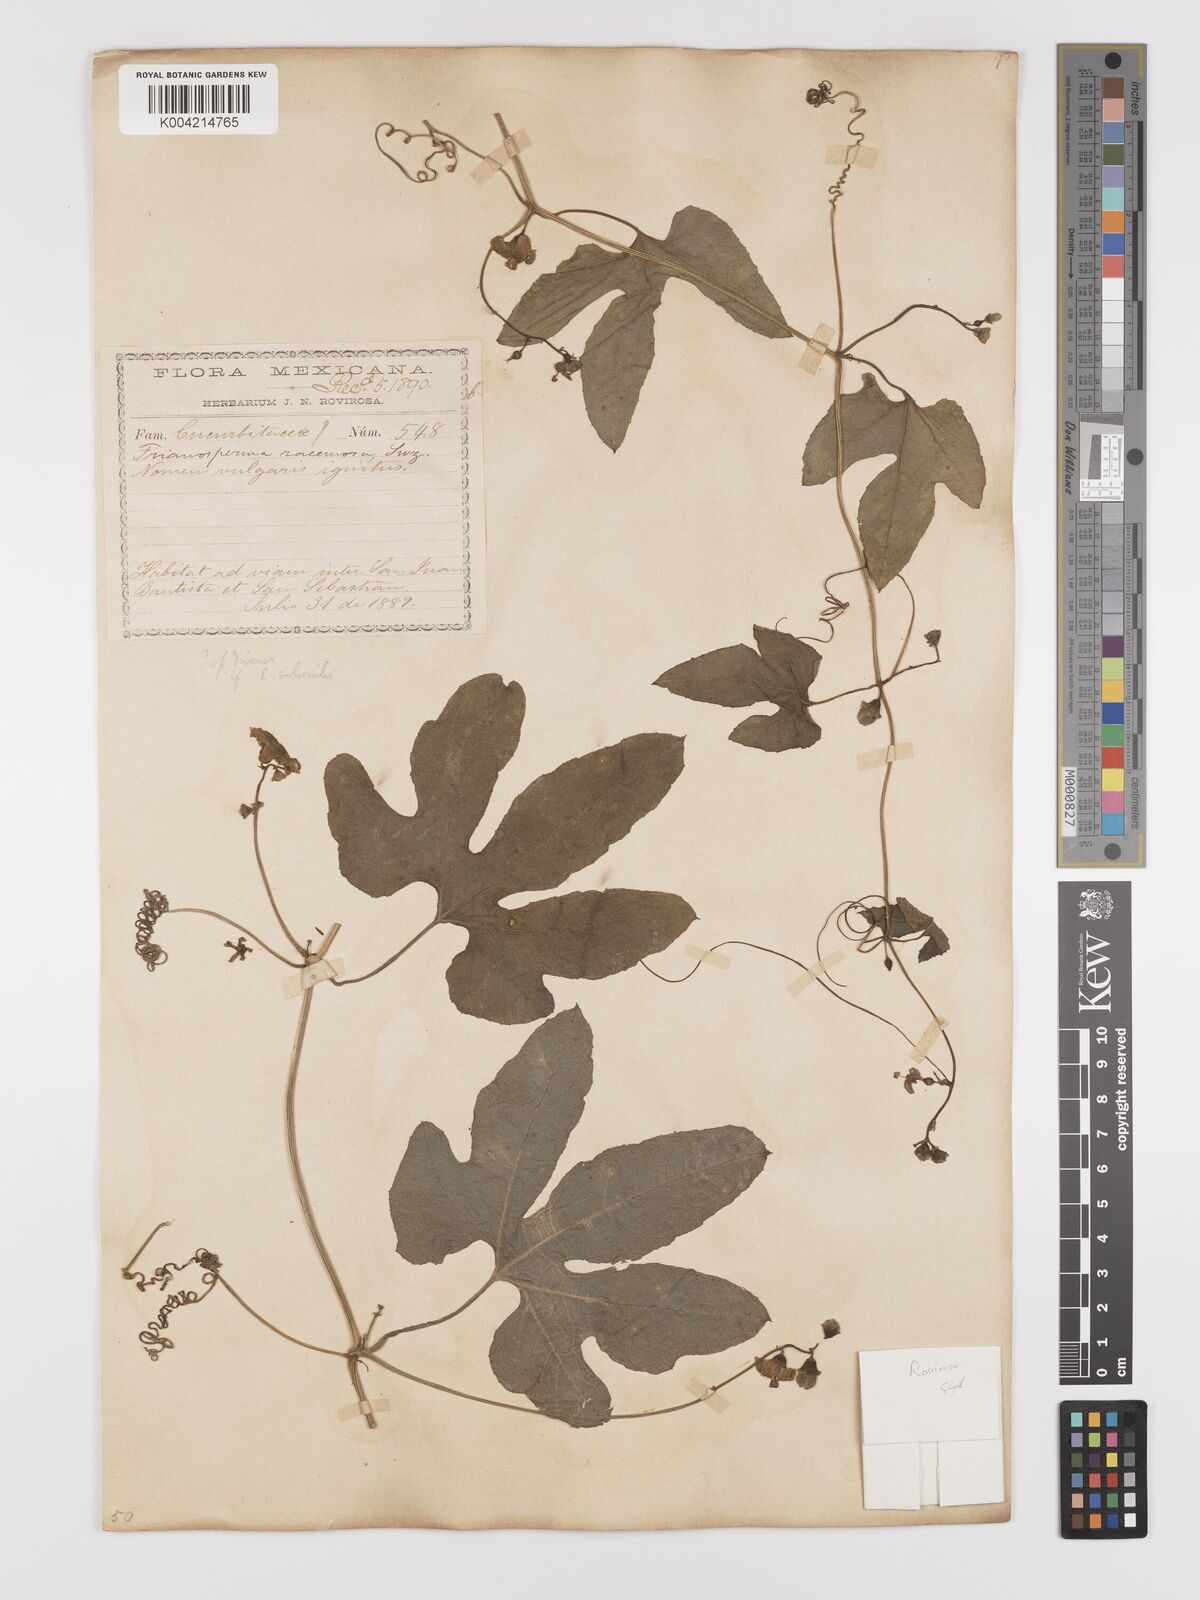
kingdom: Plantae
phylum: Tracheophyta
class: Magnoliopsida
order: Cucurbitales
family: Cucurbitaceae
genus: Cayaponia
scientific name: Cayaponia attenuata
